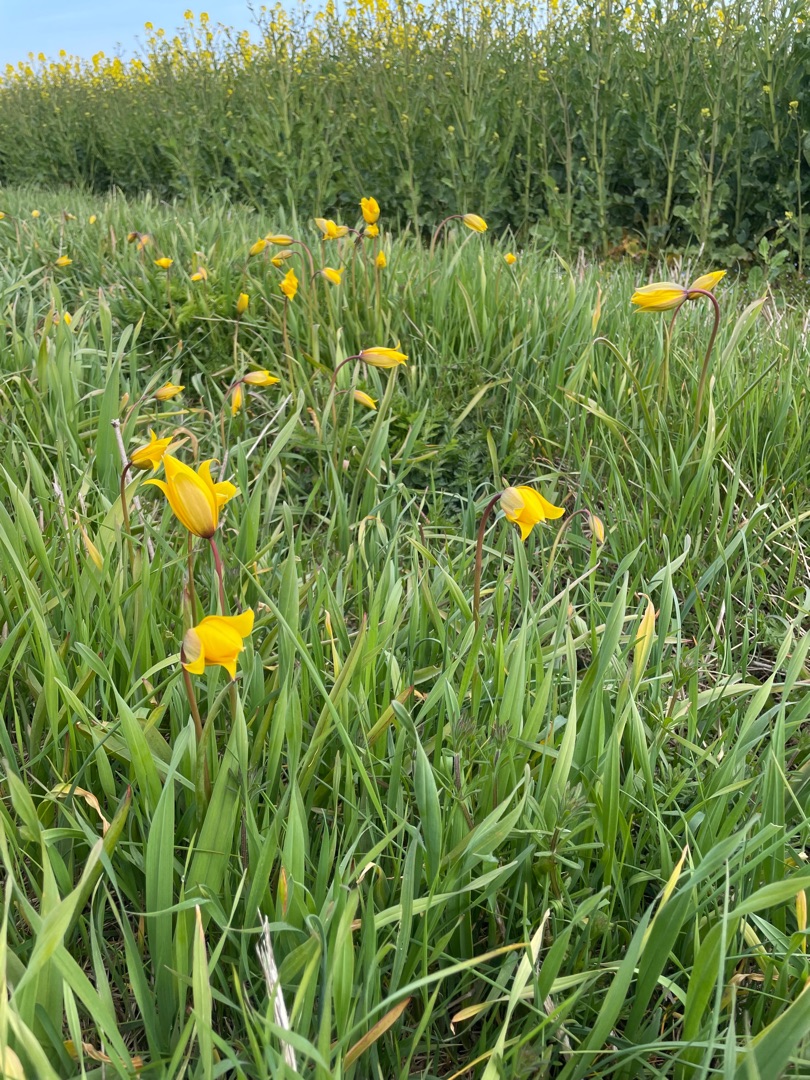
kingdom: Plantae
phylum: Tracheophyta
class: Liliopsida
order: Liliales
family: Liliaceae
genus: Tulipa
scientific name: Tulipa sylvestris
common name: Vild tulipan
